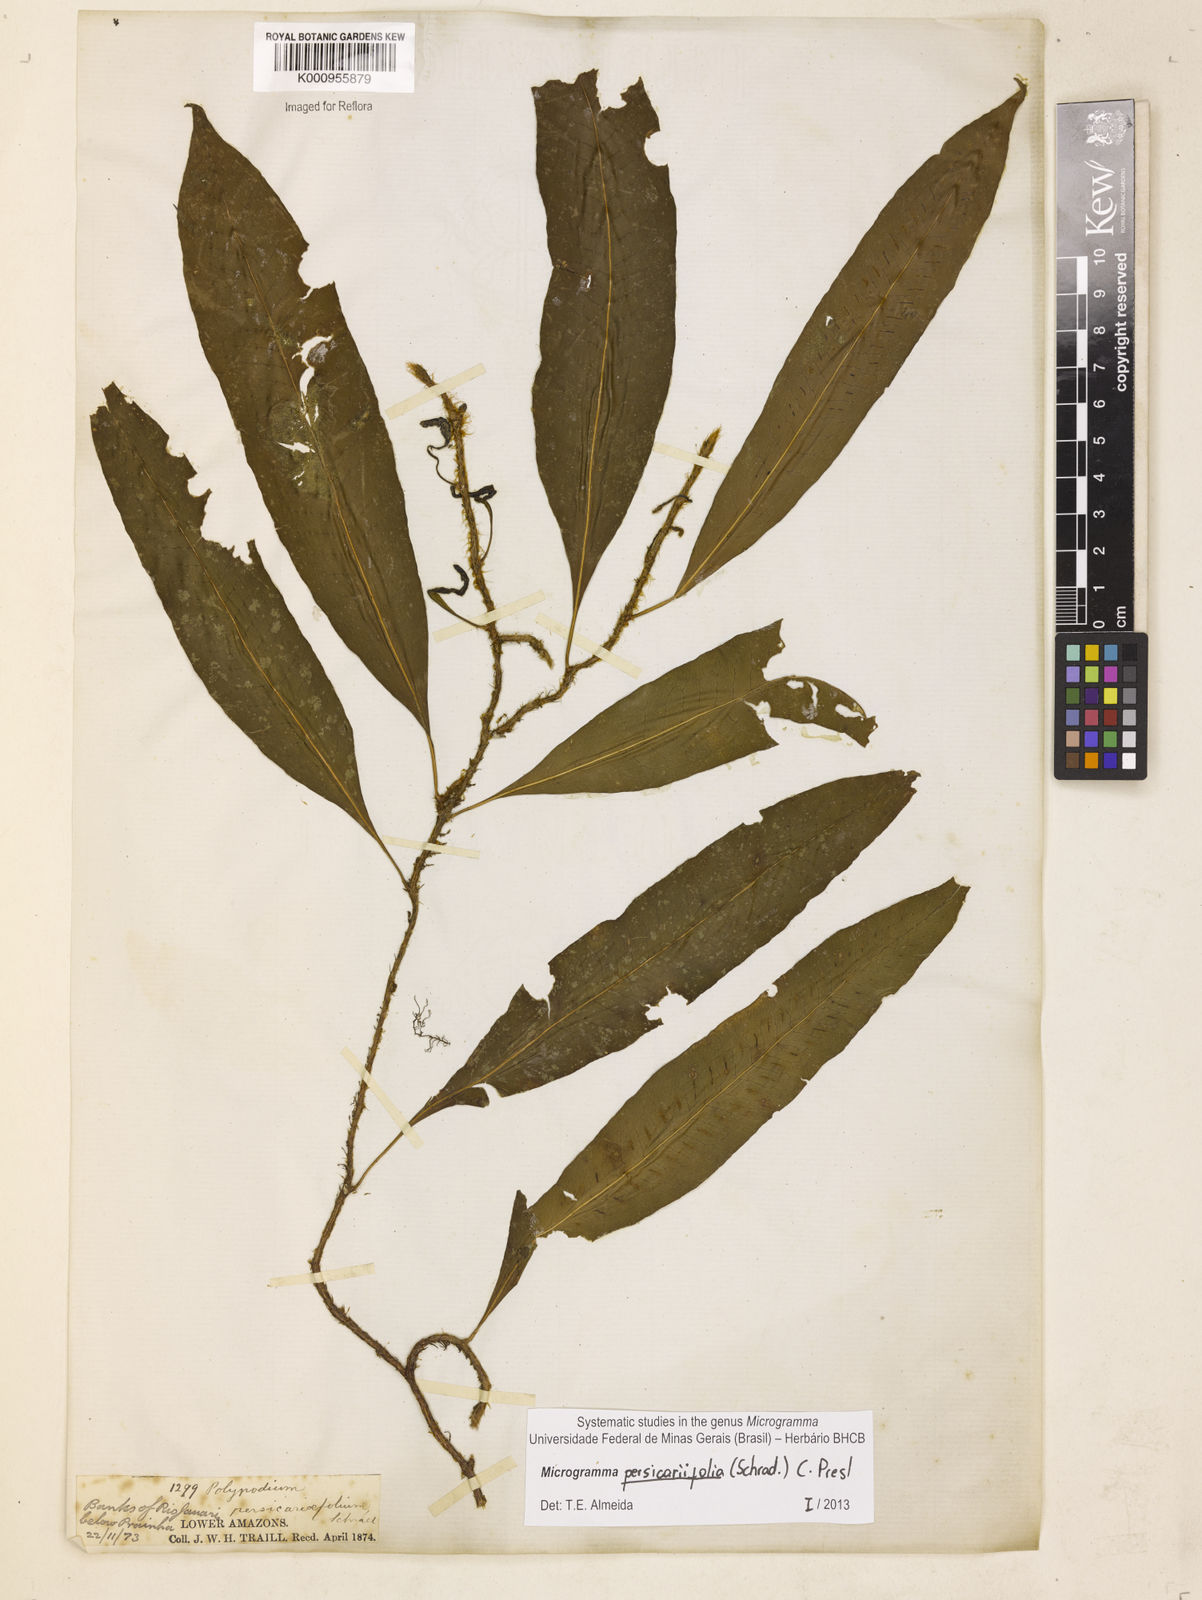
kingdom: Plantae
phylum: Tracheophyta
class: Polypodiopsida
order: Polypodiales
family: Polypodiaceae
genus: Microgramma
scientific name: Microgramma persicariifolia
